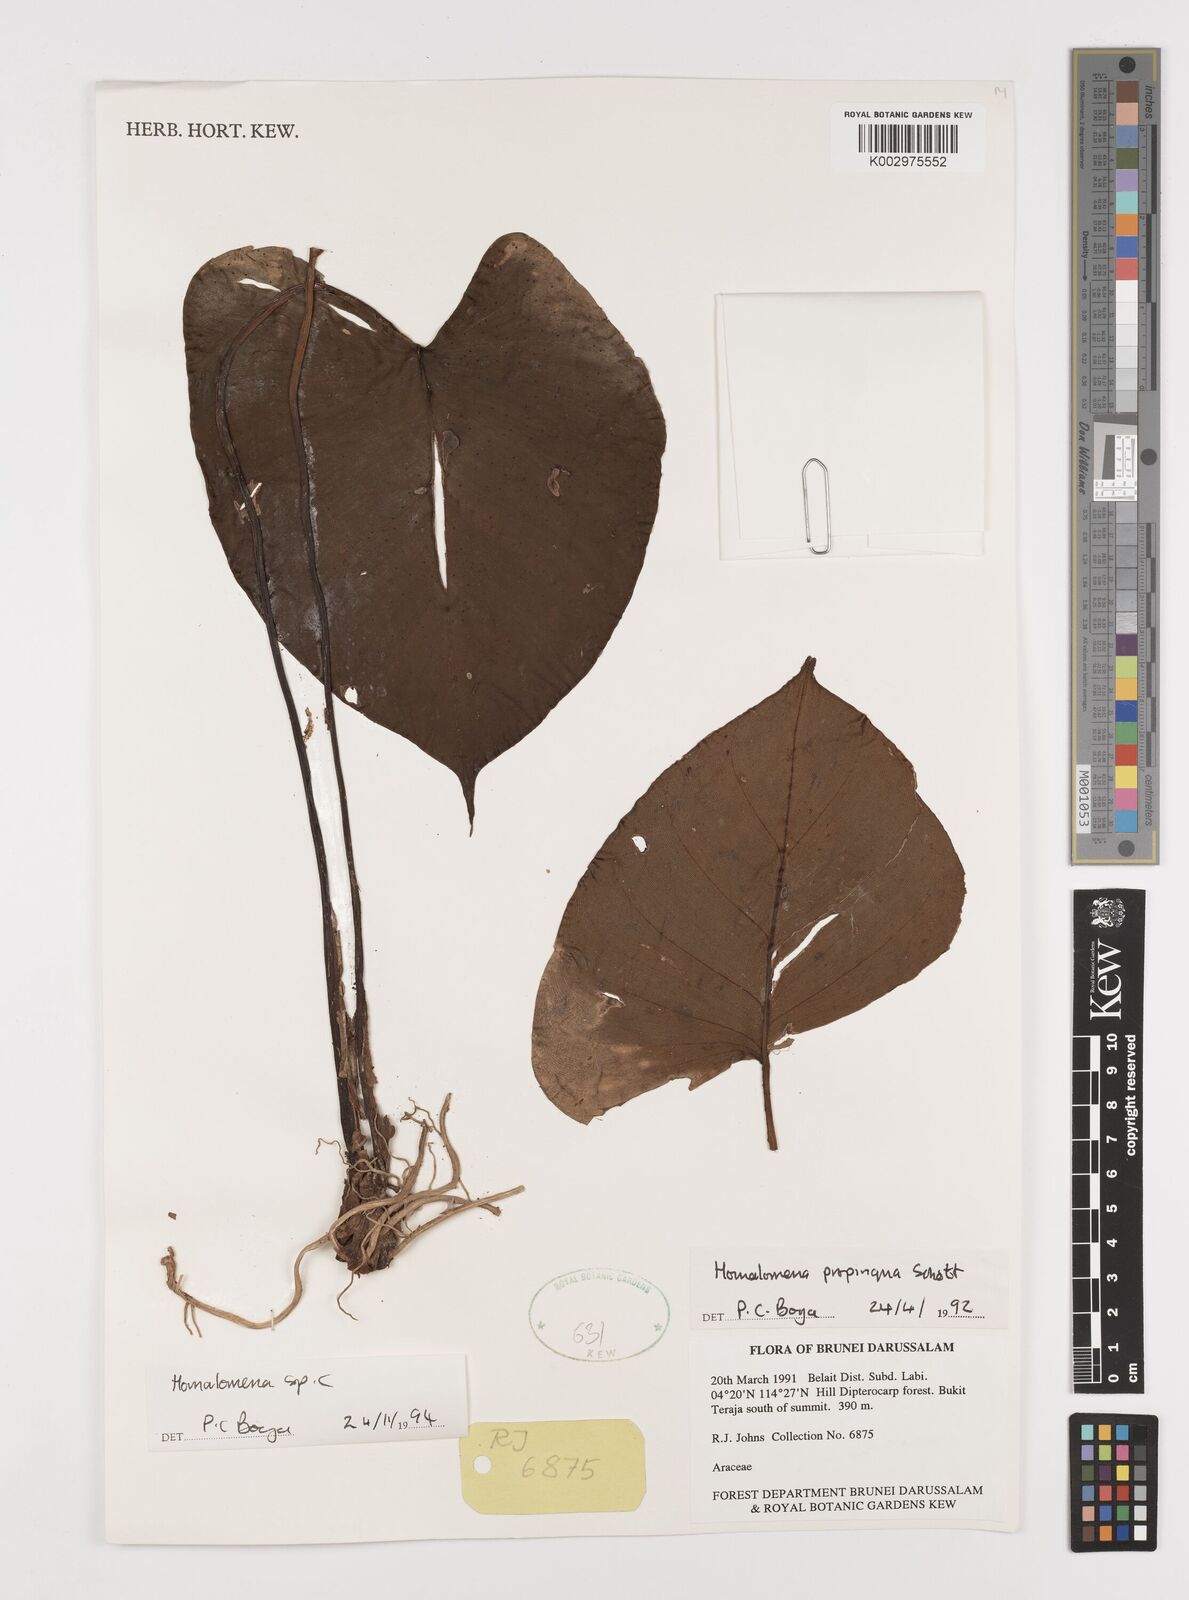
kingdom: Plantae
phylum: Tracheophyta
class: Liliopsida
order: Alismatales
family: Araceae
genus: Homalomena
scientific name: Homalomena
